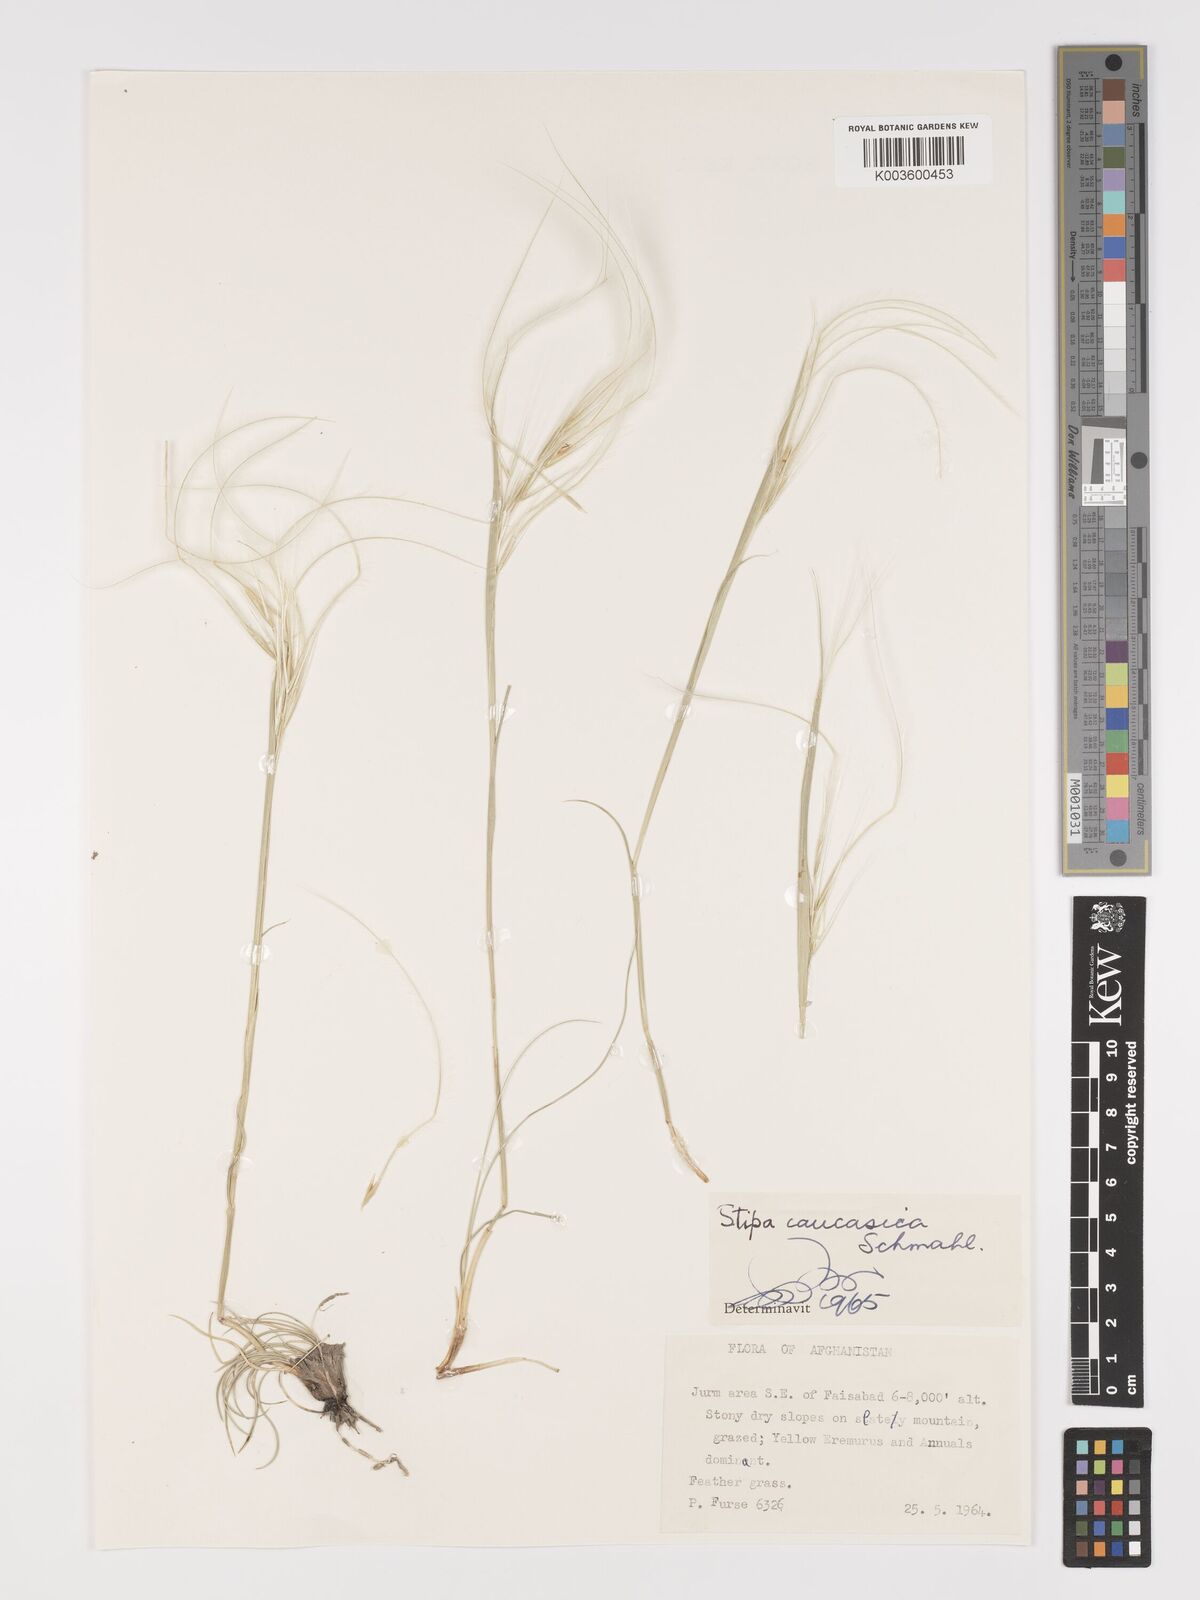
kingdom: Plantae
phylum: Tracheophyta
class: Liliopsida
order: Poales
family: Poaceae
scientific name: Poaceae
